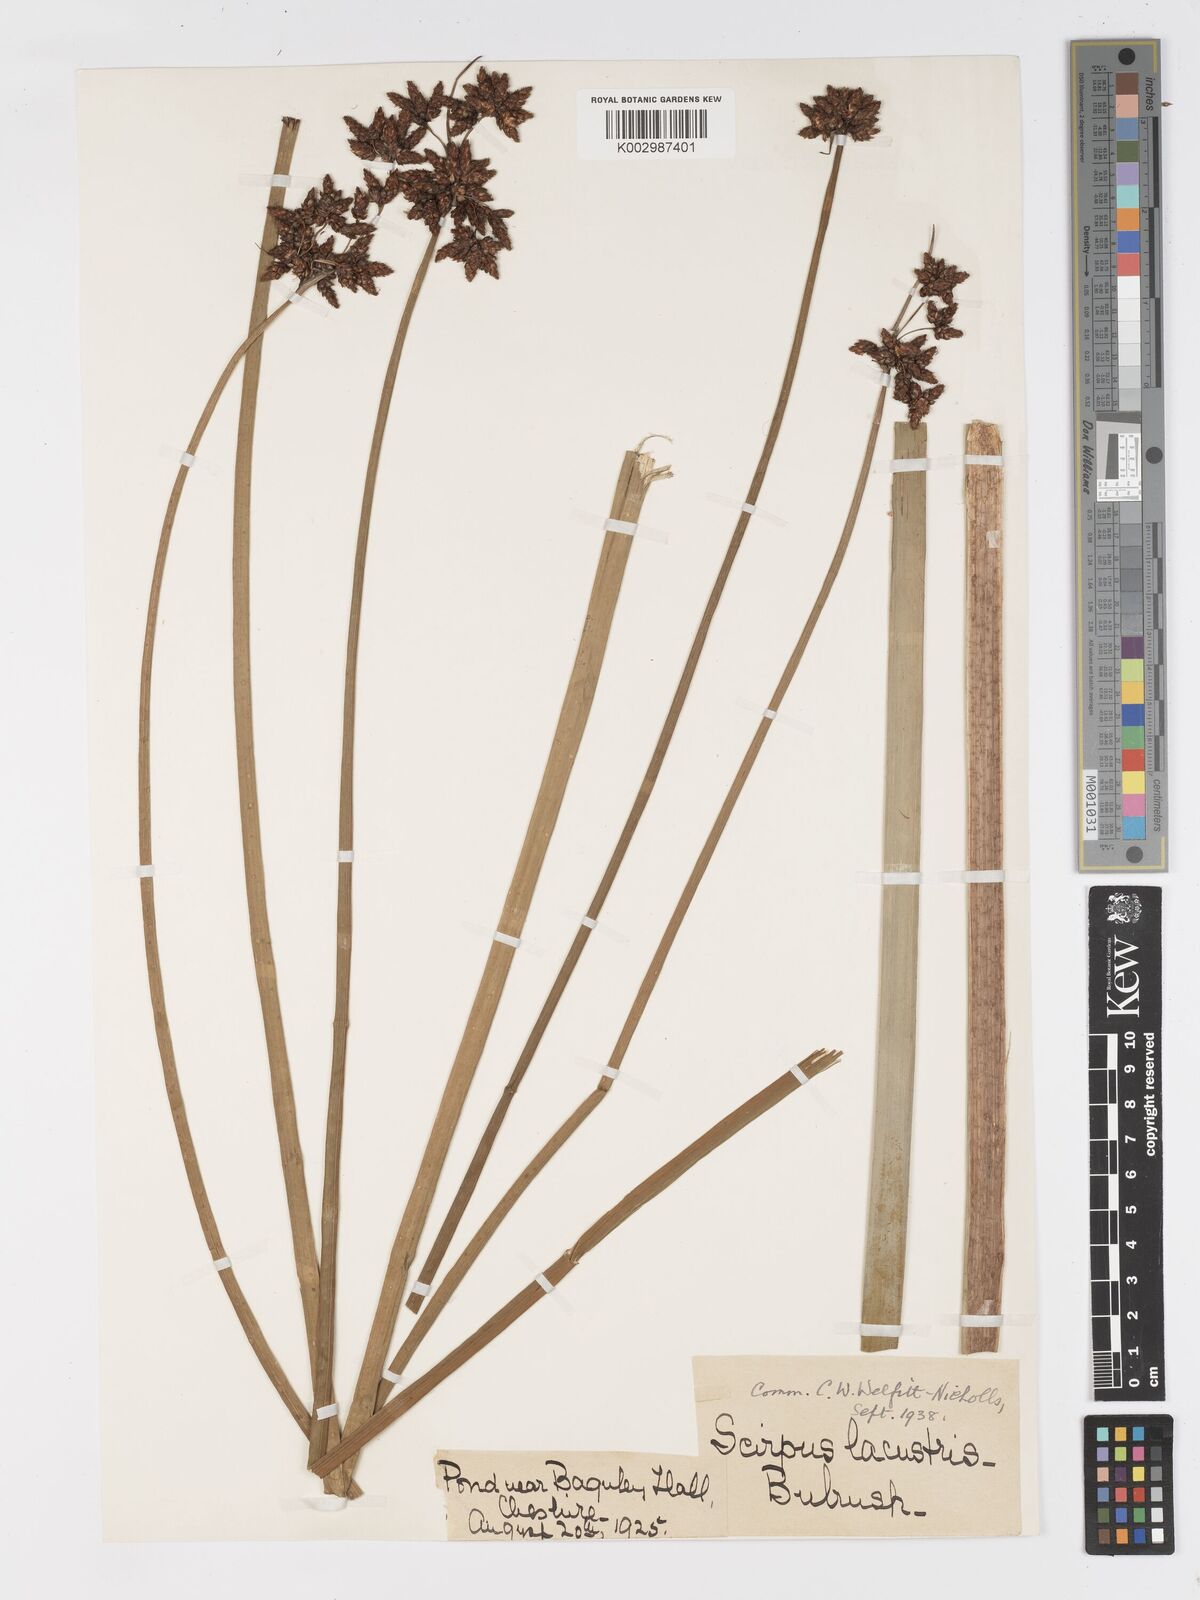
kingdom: Plantae
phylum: Tracheophyta
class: Liliopsida
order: Poales
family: Cyperaceae
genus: Schoenoplectus
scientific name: Schoenoplectus lacustris
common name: Common club-rush
